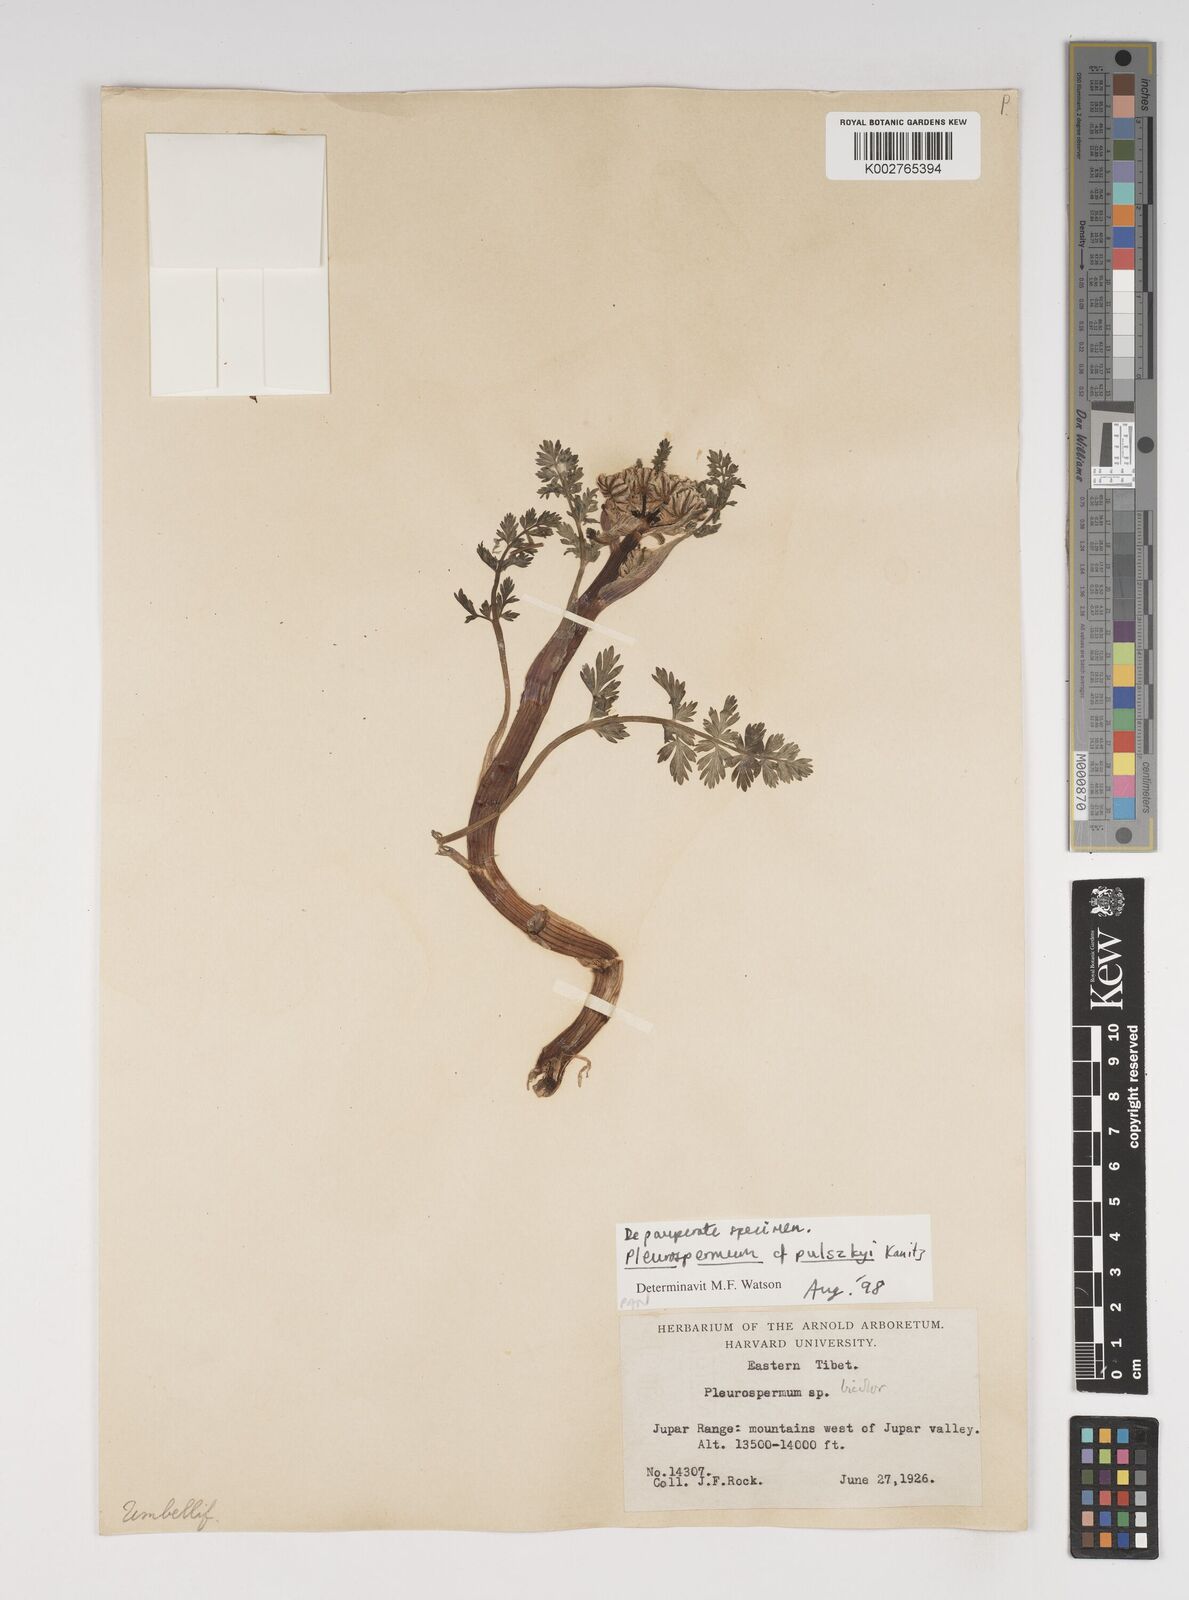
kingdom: Plantae
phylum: Tracheophyta
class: Magnoliopsida
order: Apiales
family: Apiaceae
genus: Hymenidium
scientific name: Hymenidium pulszkyi
